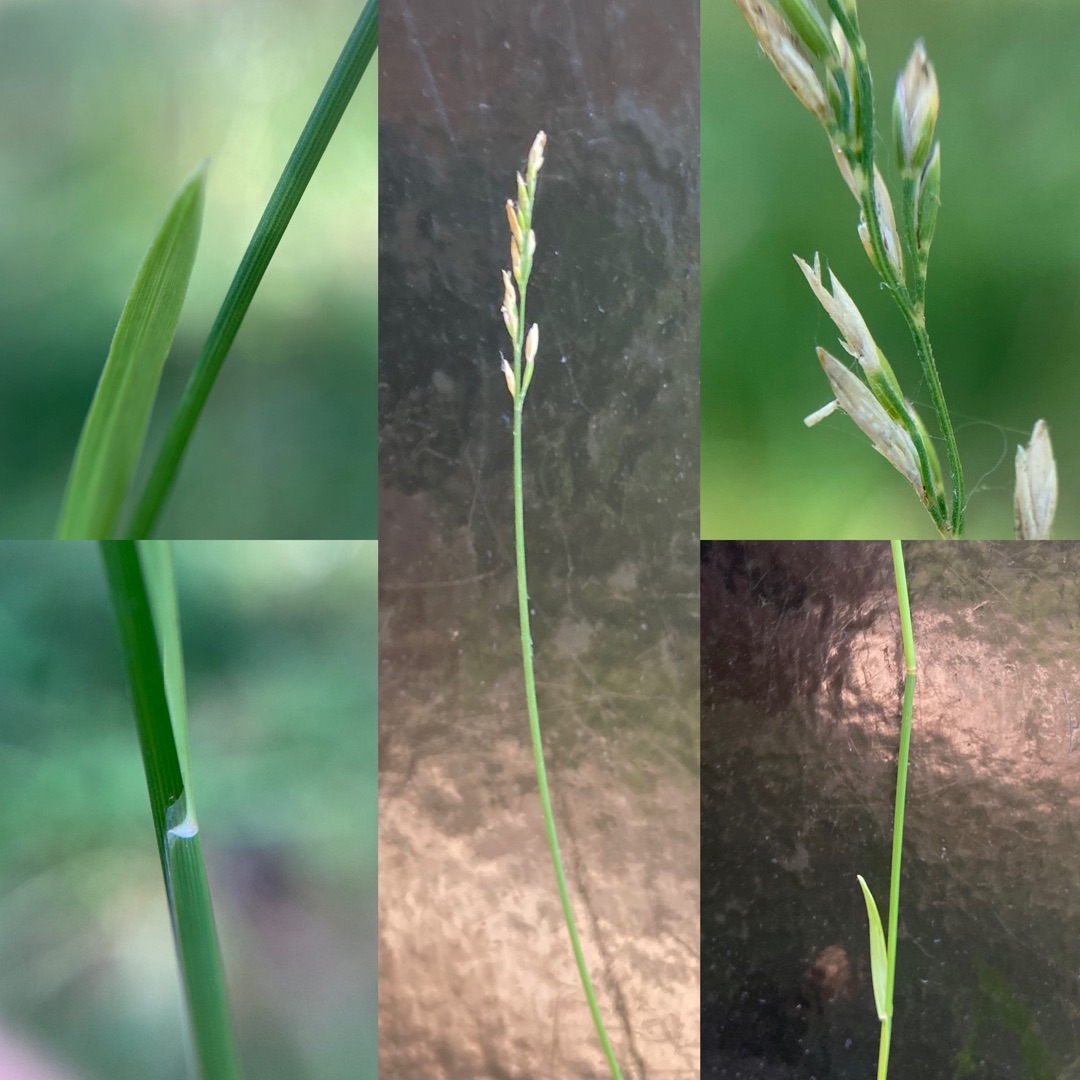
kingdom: Plantae
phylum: Tracheophyta
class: Liliopsida
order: Poales
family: Poaceae
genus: Poa
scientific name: Poa compressa
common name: Fladstrået rapgræs
